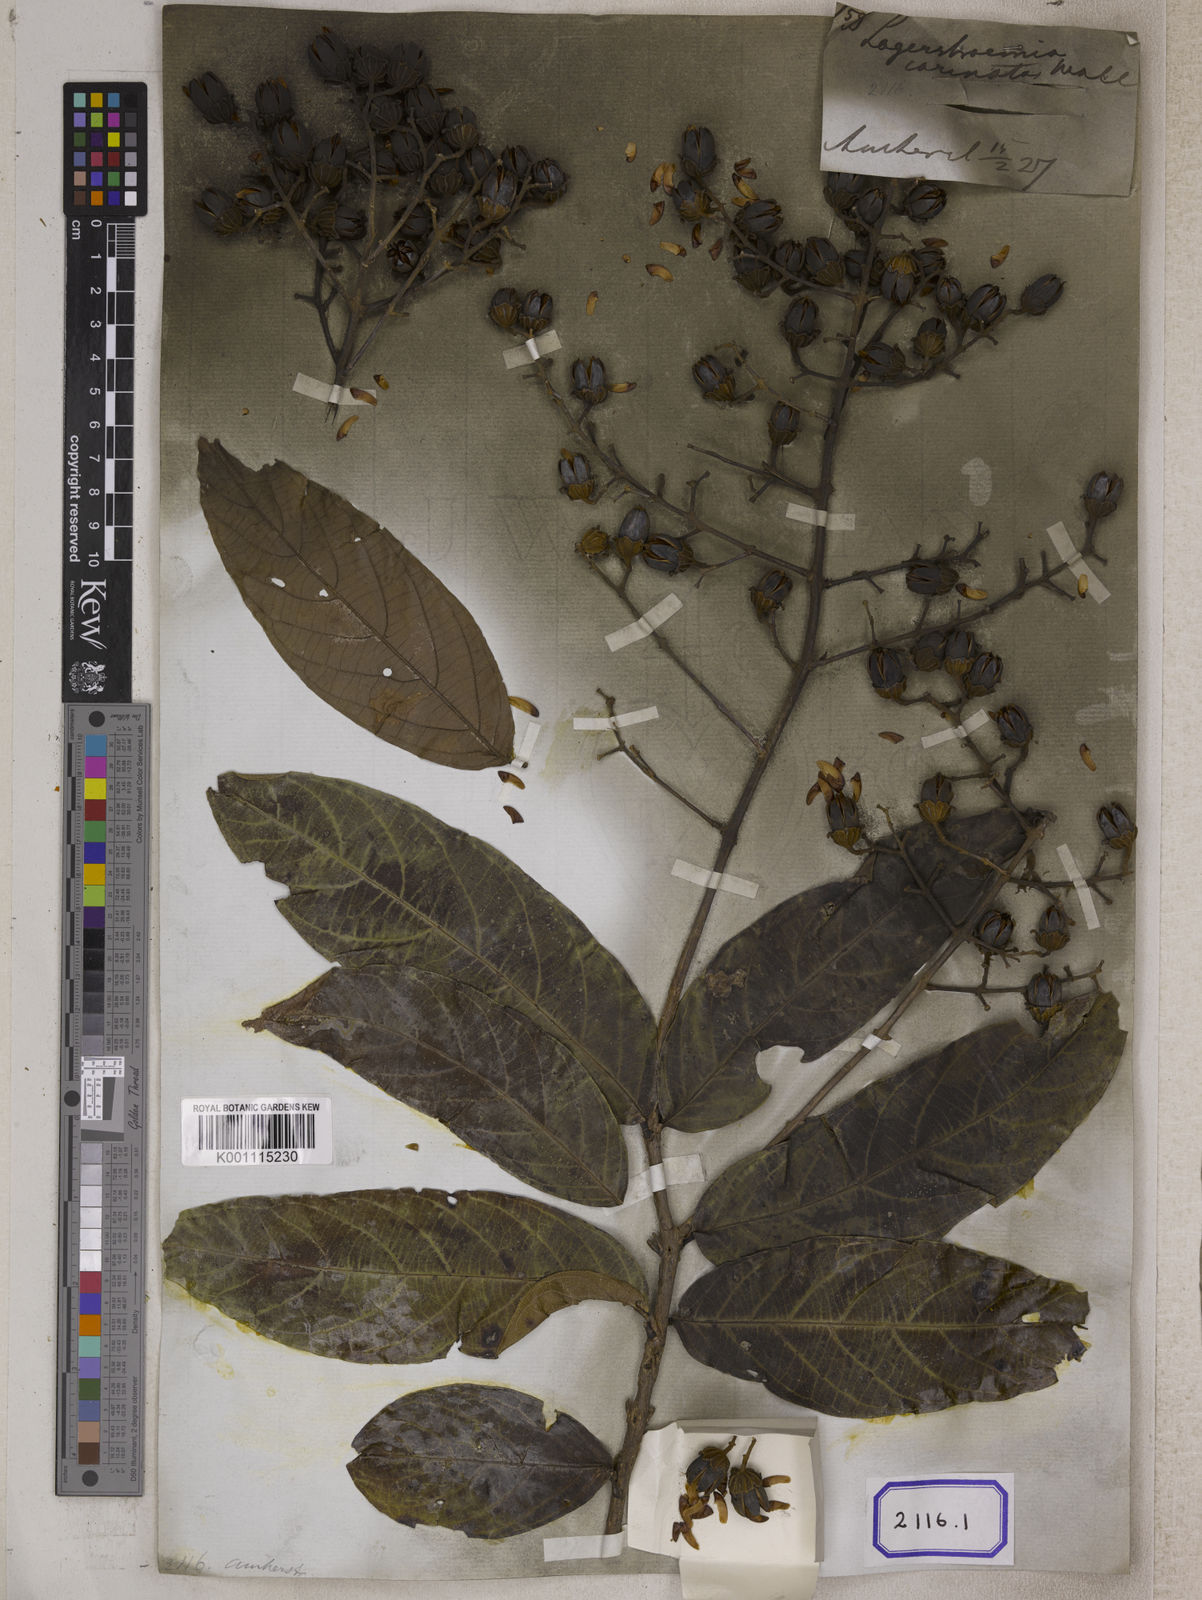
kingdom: Plantae
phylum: Tracheophyta
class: Magnoliopsida
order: Myrtales
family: Lythraceae
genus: Lagerstroemia
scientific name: Lagerstroemia
